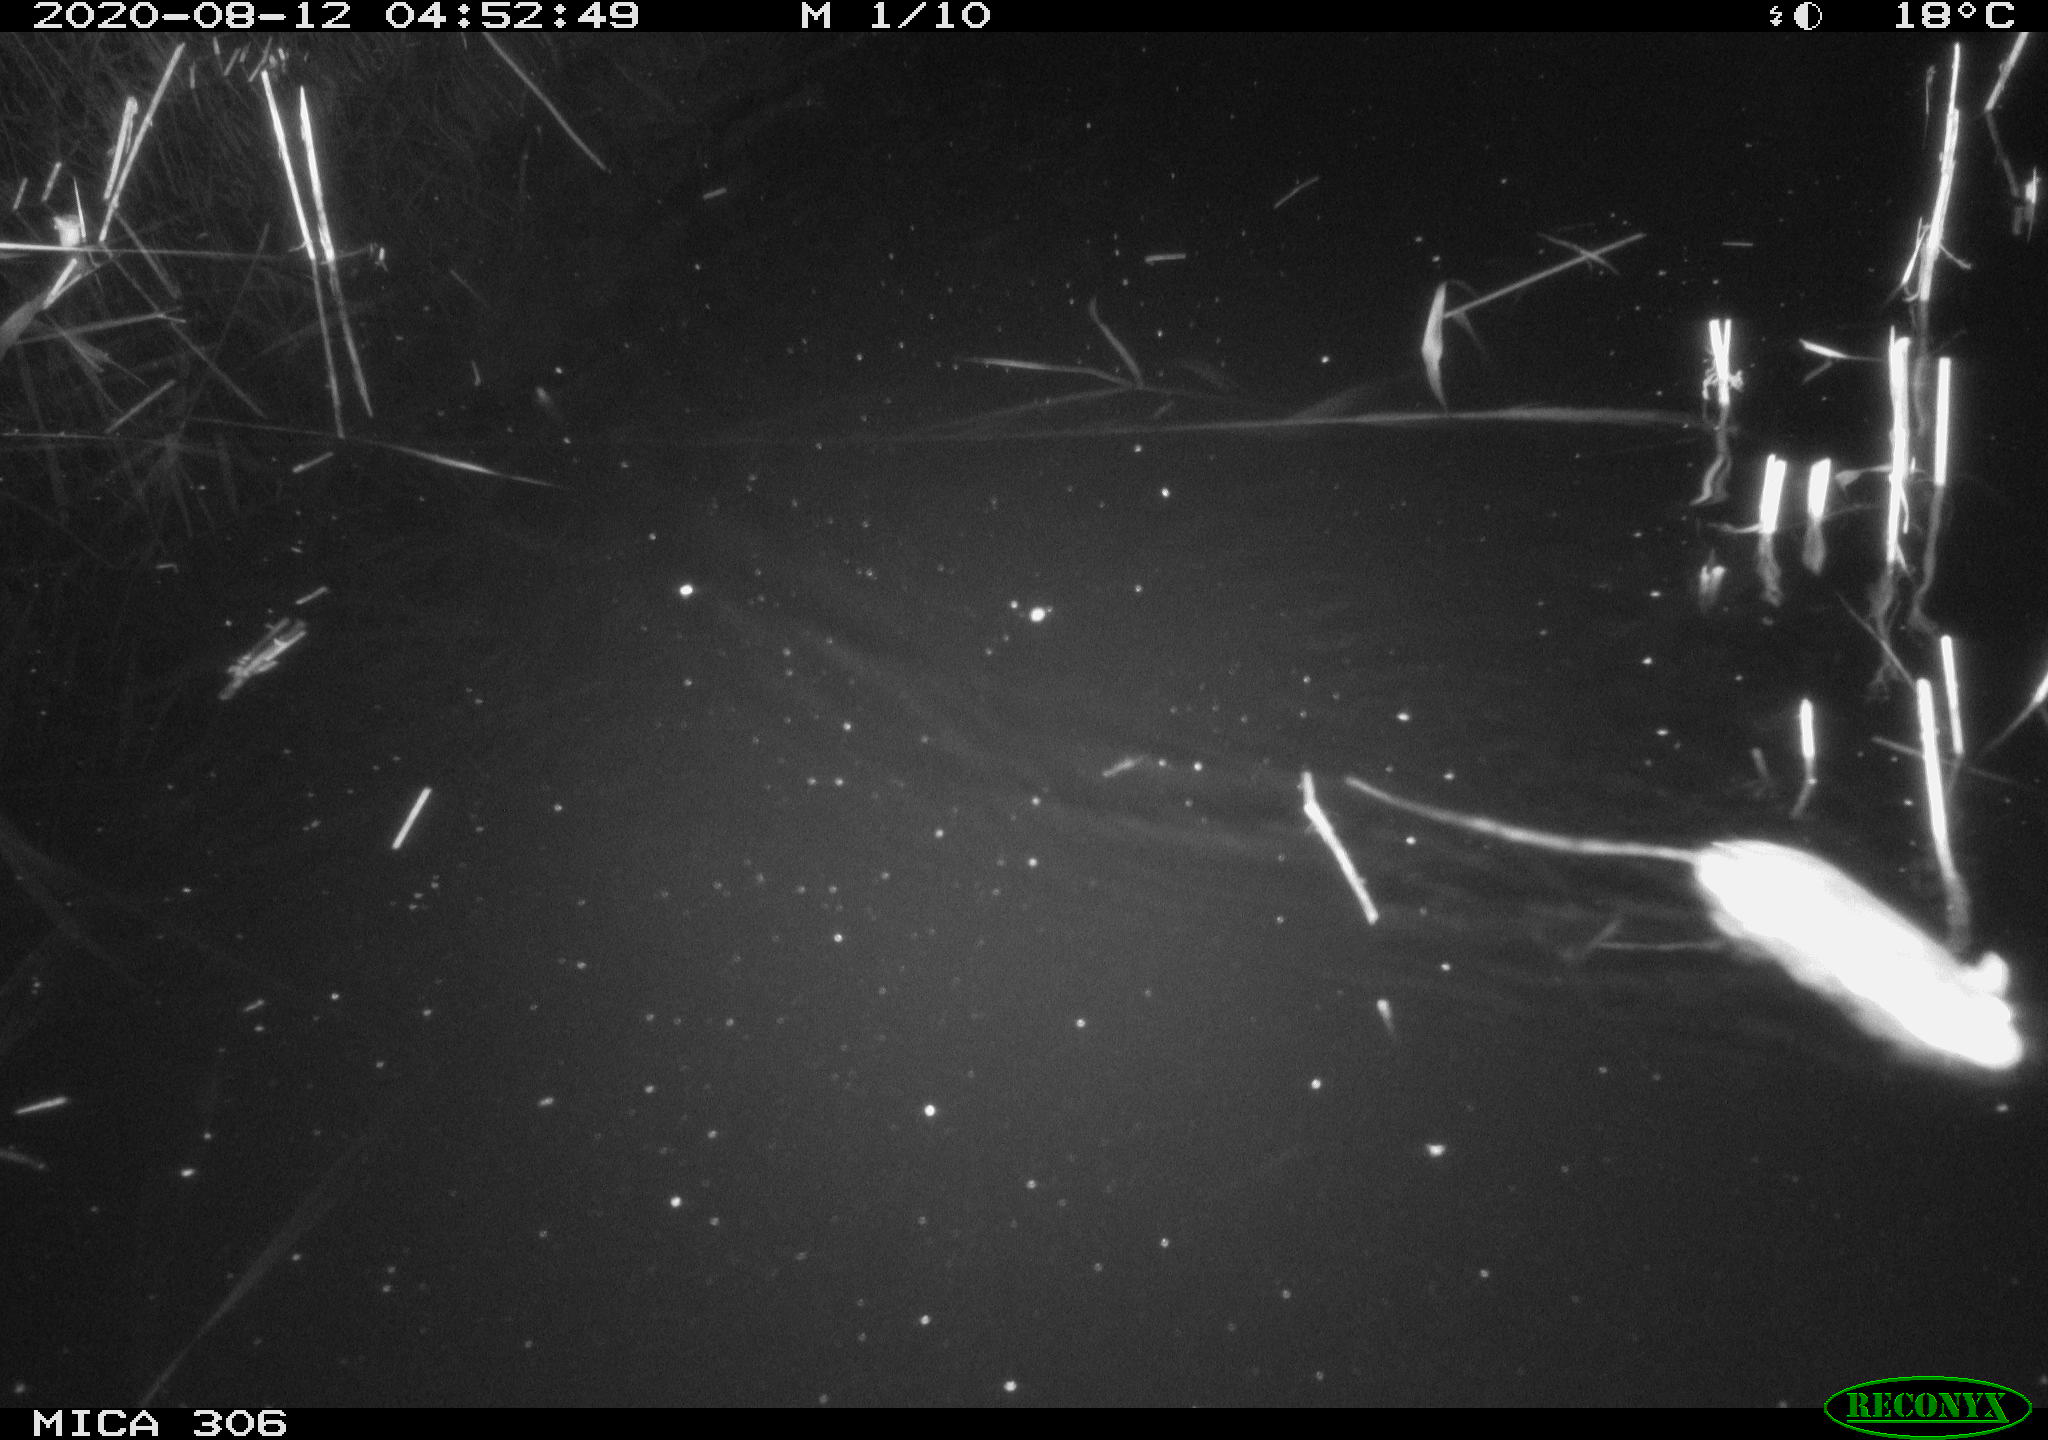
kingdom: Animalia
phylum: Chordata
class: Mammalia
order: Rodentia
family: Muridae
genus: Rattus
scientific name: Rattus norvegicus
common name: Brown rat
